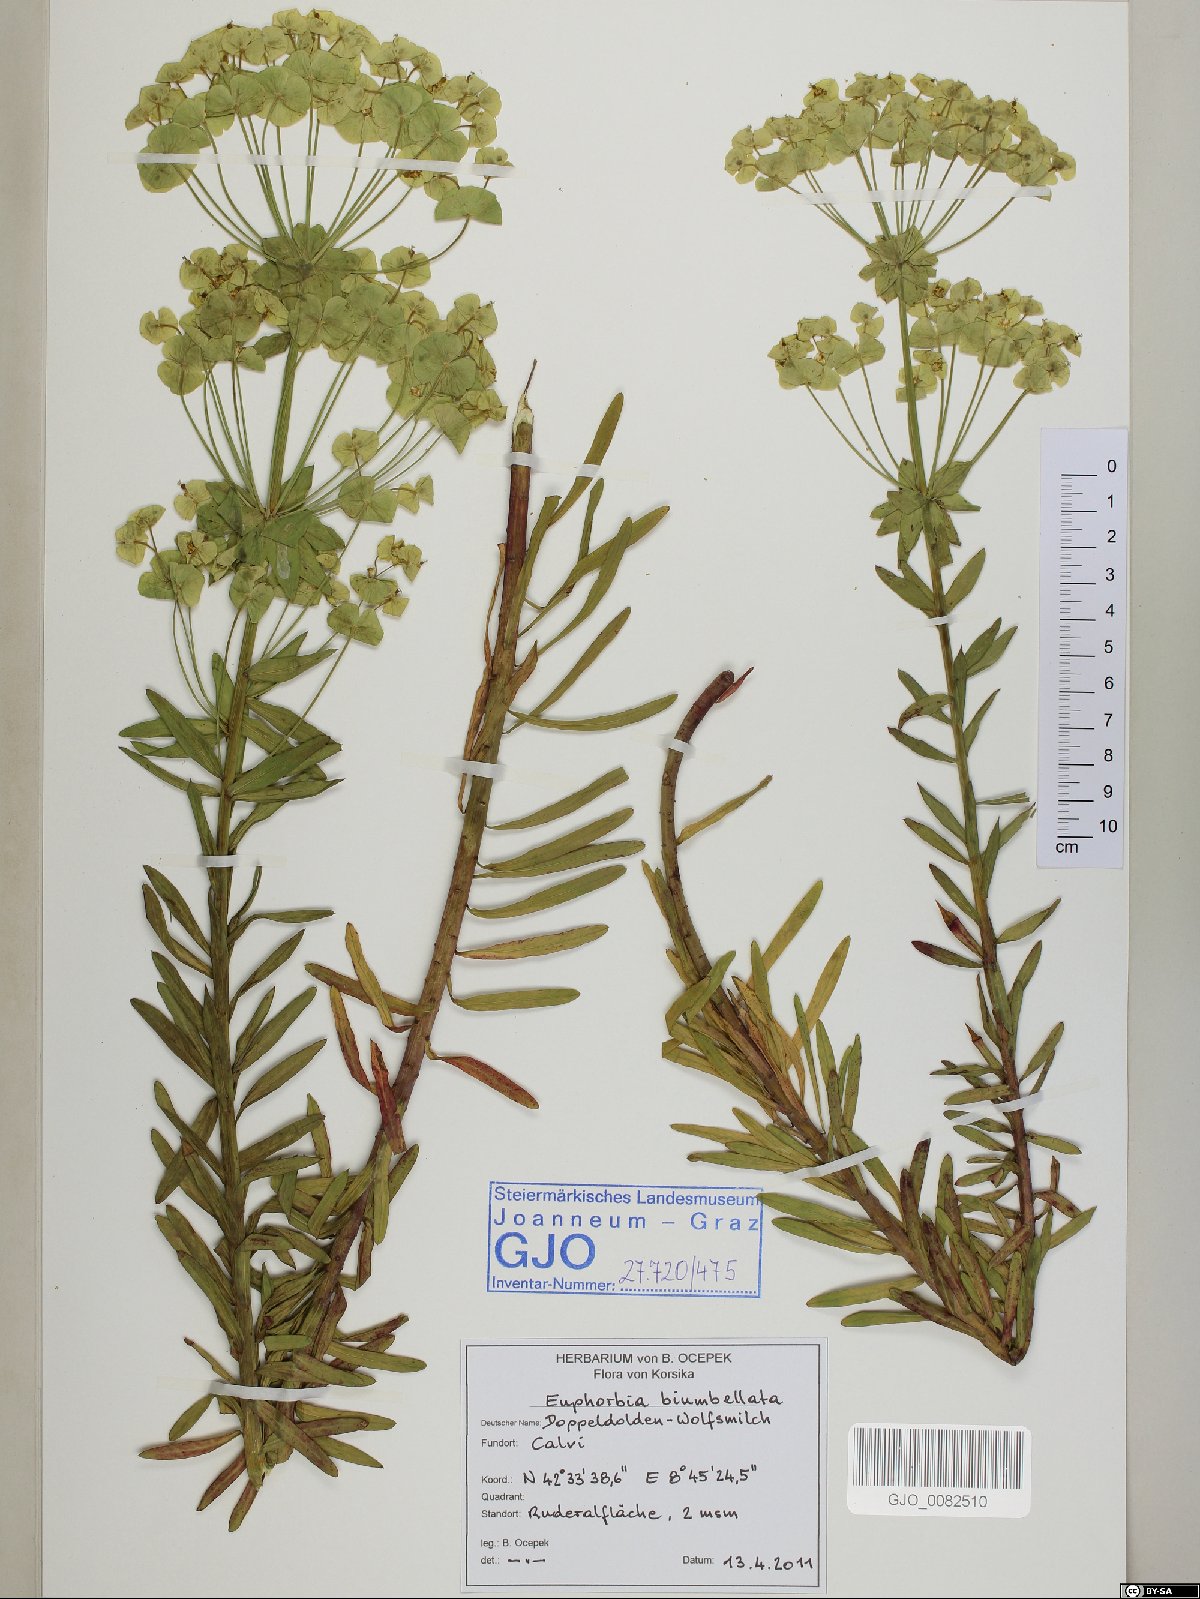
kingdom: Plantae
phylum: Tracheophyta
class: Magnoliopsida
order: Malpighiales
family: Euphorbiaceae
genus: Euphorbia
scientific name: Euphorbia biumbellata
